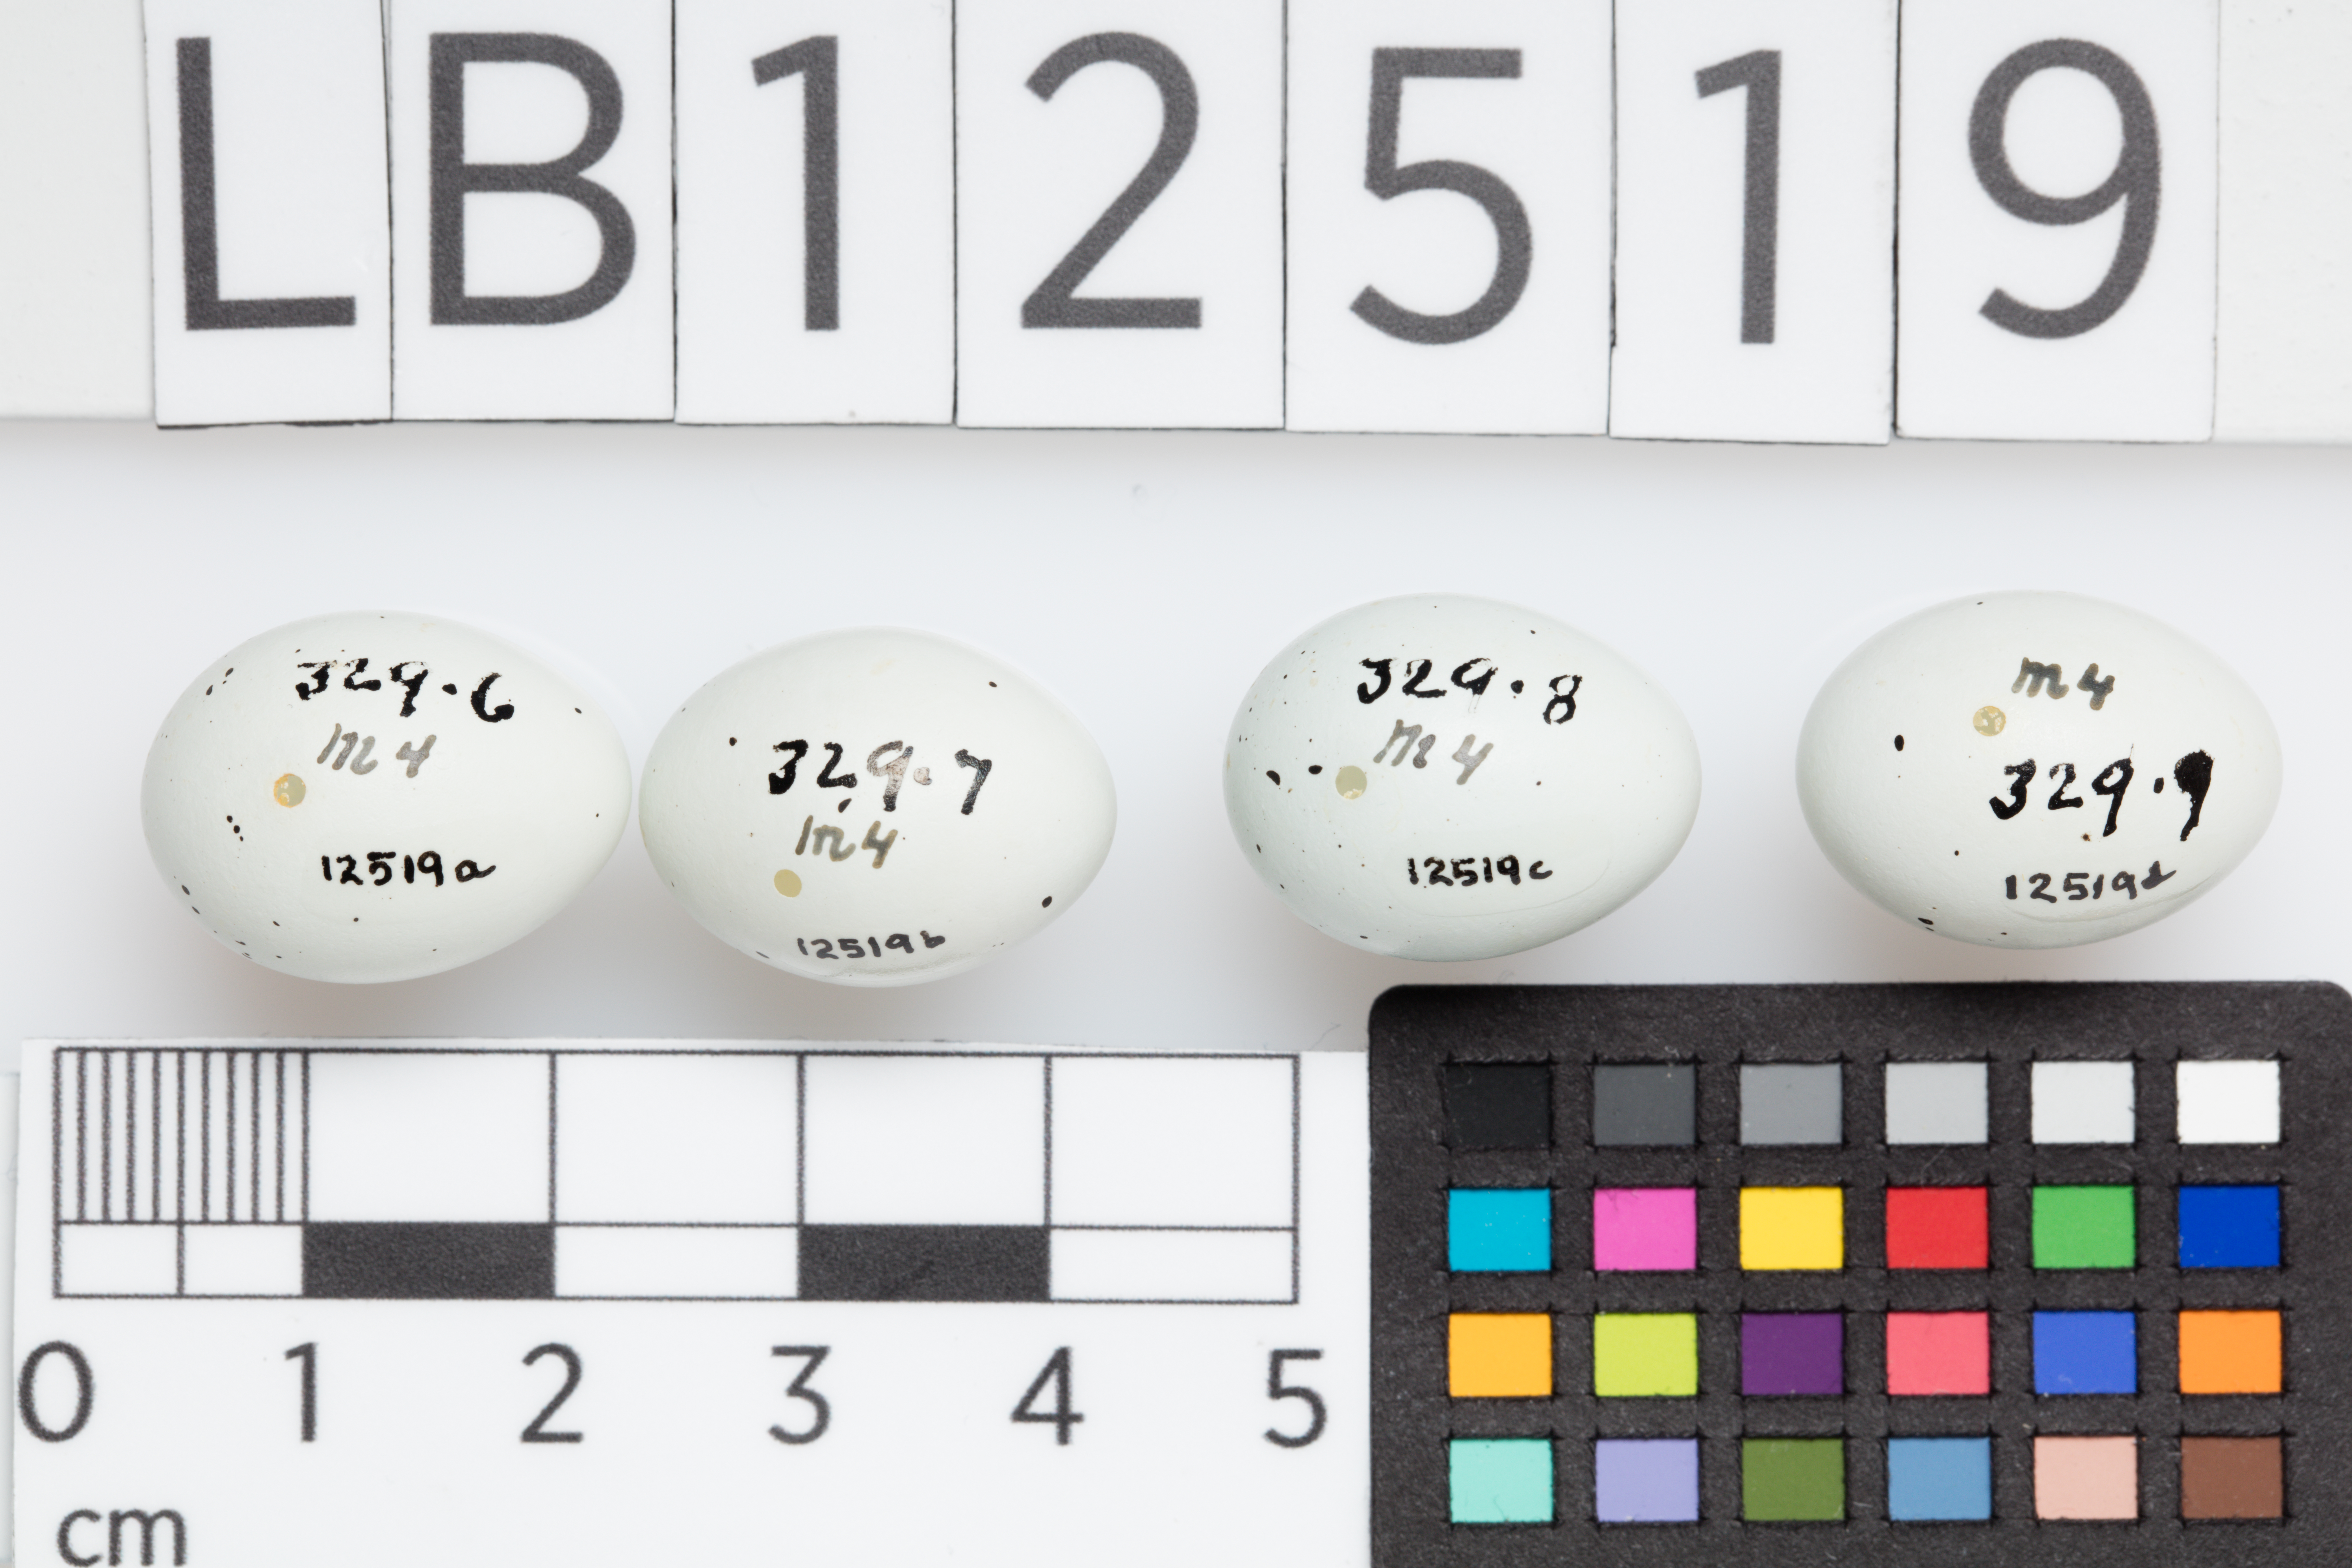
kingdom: Animalia
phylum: Chordata
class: Aves
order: Passeriformes
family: Fringillidae
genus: Haemorhous
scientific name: Haemorhous mexicanus
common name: House finch
